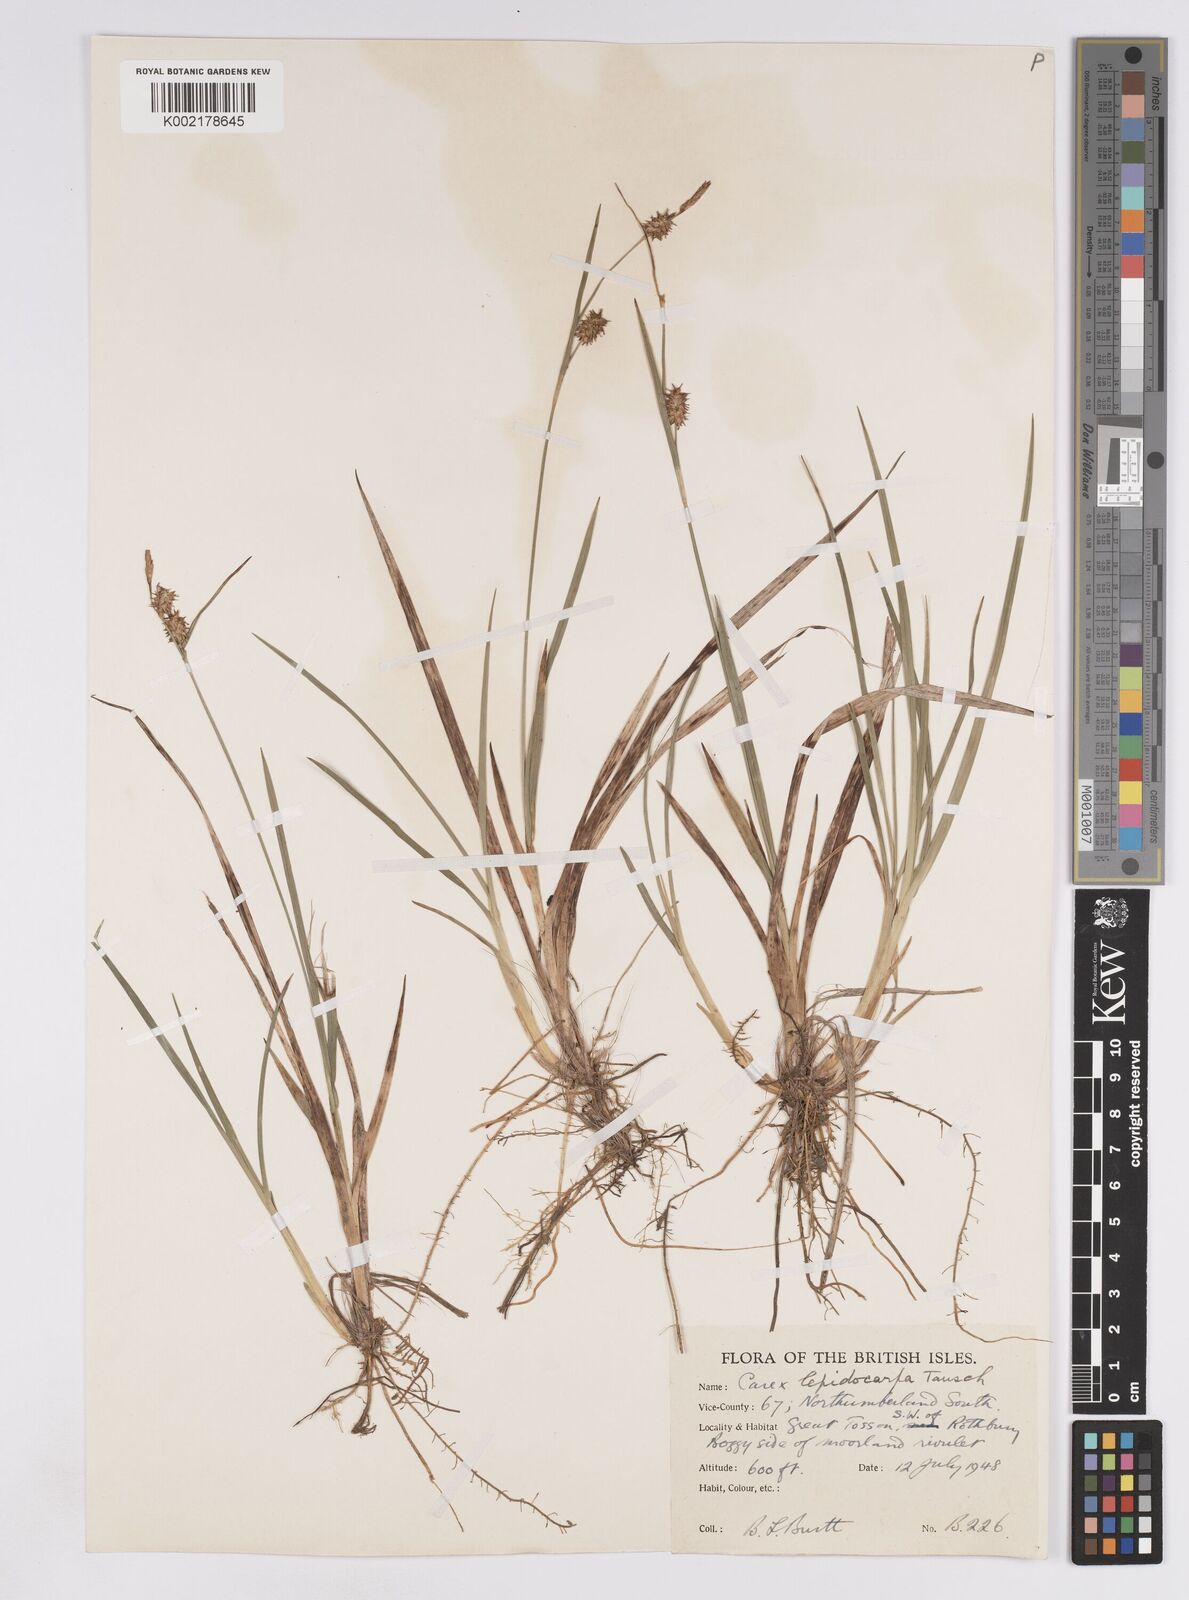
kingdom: Plantae
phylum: Tracheophyta
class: Liliopsida
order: Poales
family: Cyperaceae
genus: Carex
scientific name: Carex lepidocarpa
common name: Long-stalked yellow-sedge
